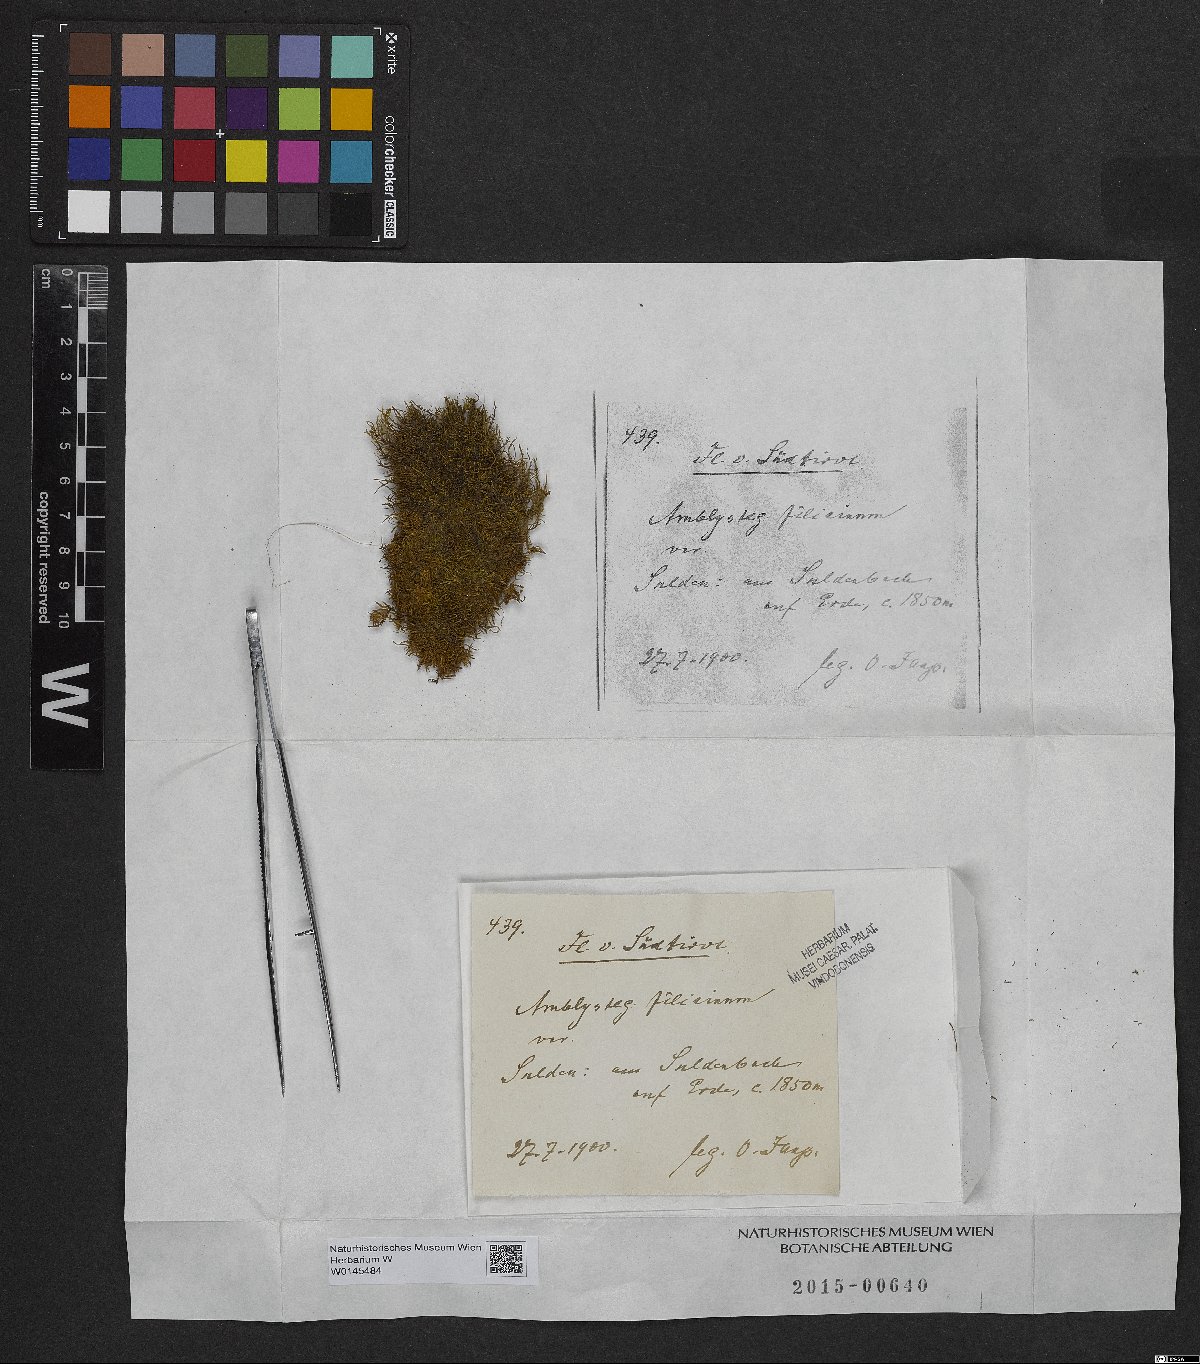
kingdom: Plantae
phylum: Bryophyta
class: Bryopsida
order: Hypnales
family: Amblystegiaceae
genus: Cratoneuron
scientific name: Cratoneuron filicinum
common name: Fern-leaved hook moss
